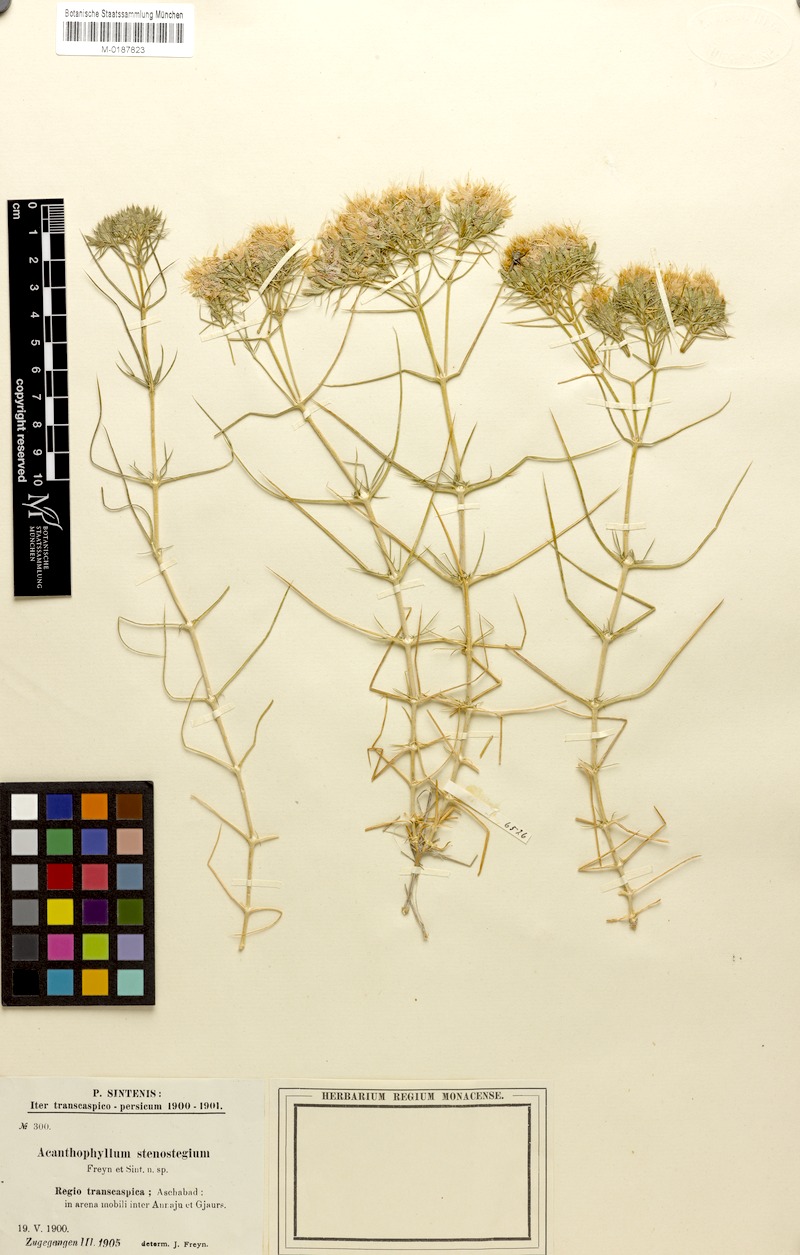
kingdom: Plantae
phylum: Tracheophyta
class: Magnoliopsida
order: Caryophyllales
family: Caryophyllaceae
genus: Acanthophyllum
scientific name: Acanthophyllum stenostegium
